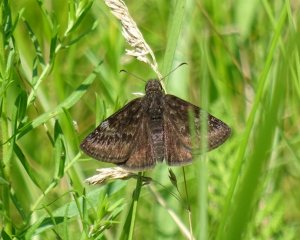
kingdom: Animalia
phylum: Arthropoda
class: Insecta
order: Lepidoptera
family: Hesperiidae
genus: Gesta
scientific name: Gesta
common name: Wild Indigo Duskywing
